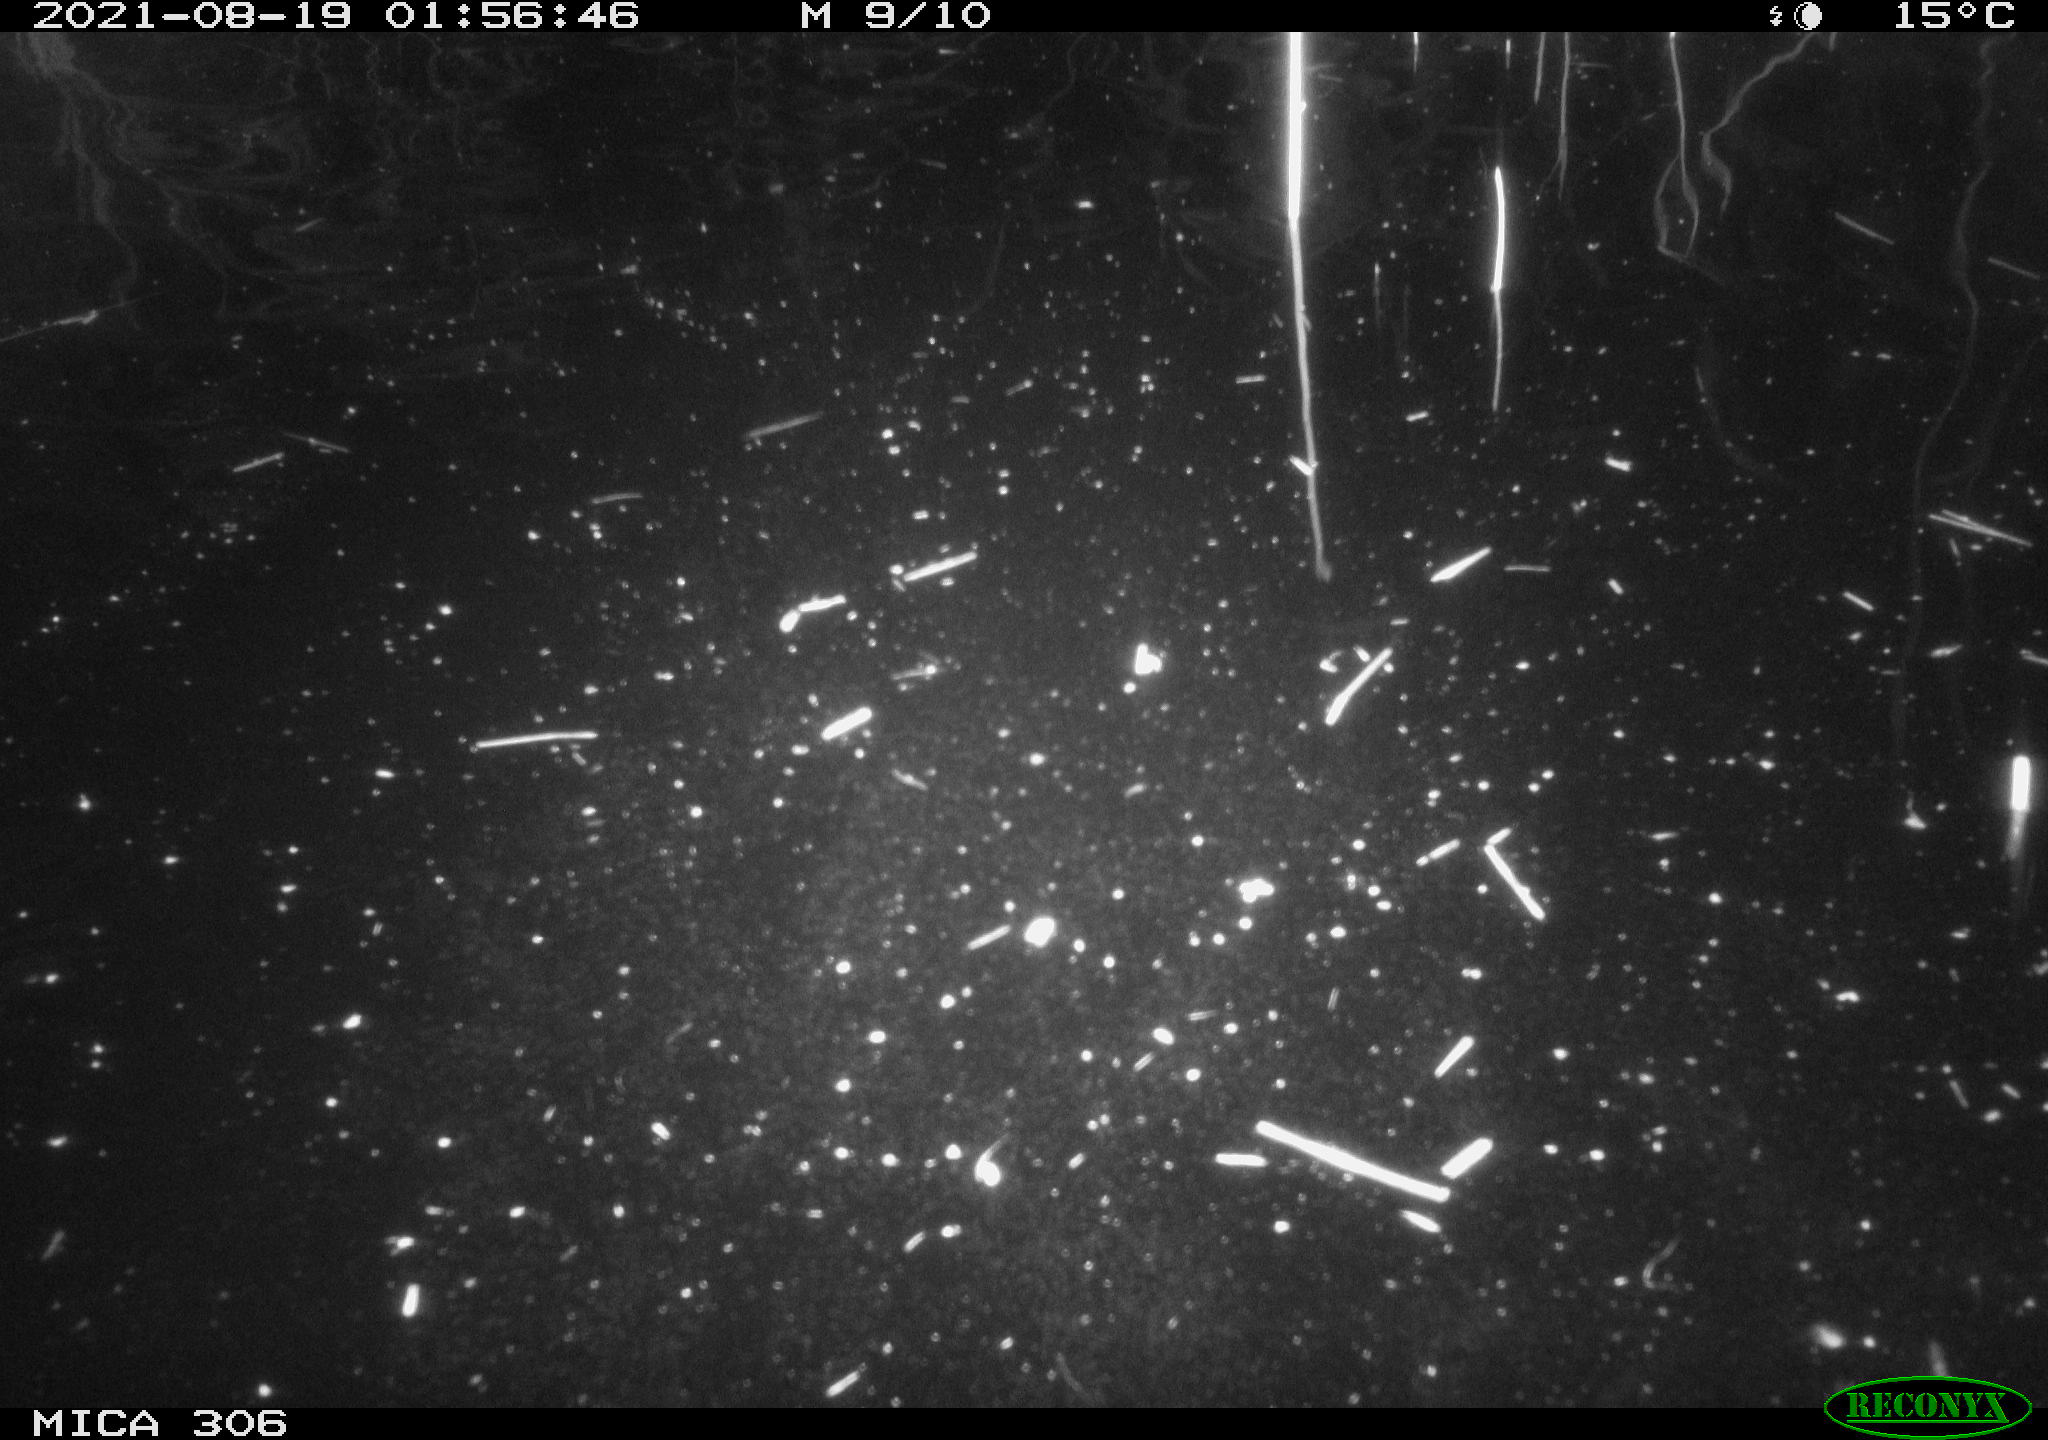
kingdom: Animalia
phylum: Chordata
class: Mammalia
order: Rodentia
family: Muridae
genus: Rattus
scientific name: Rattus norvegicus
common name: Brown rat
